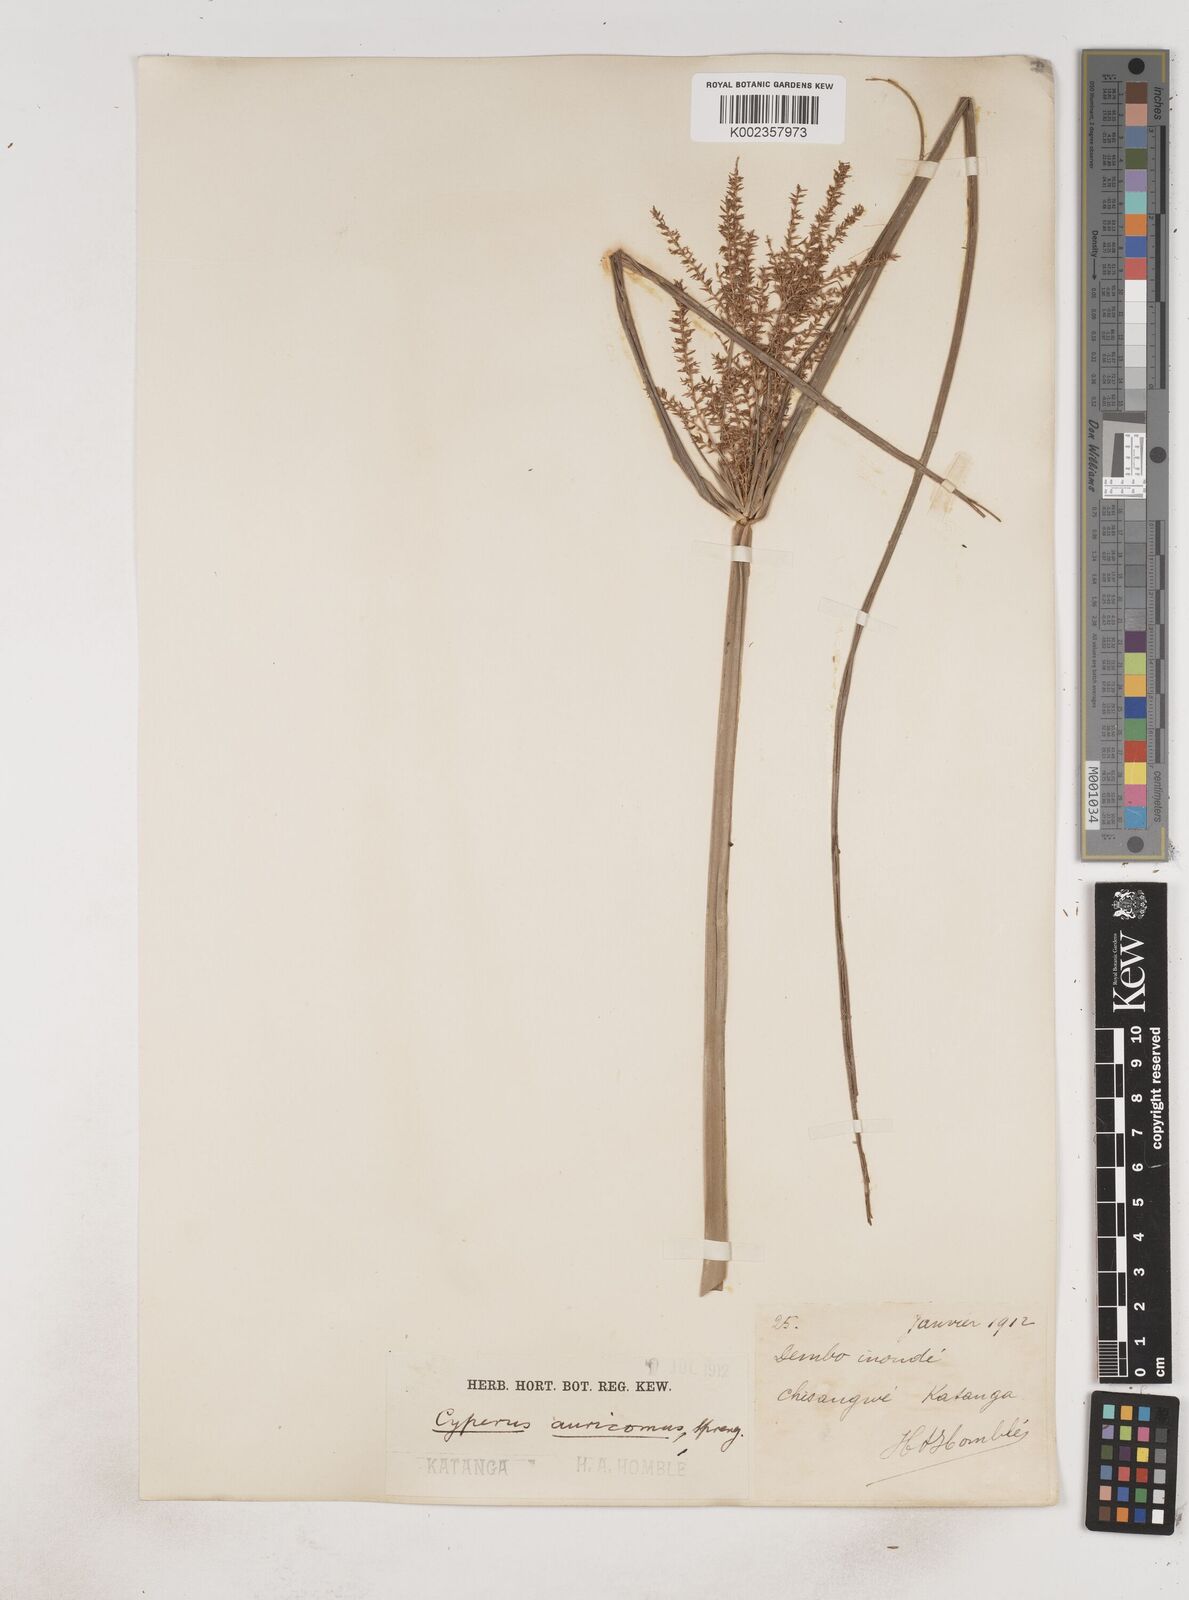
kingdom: Plantae
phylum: Tracheophyta
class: Liliopsida
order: Poales
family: Cyperaceae
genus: Cyperus
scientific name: Cyperus digitatus
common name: Finger flatsedge
